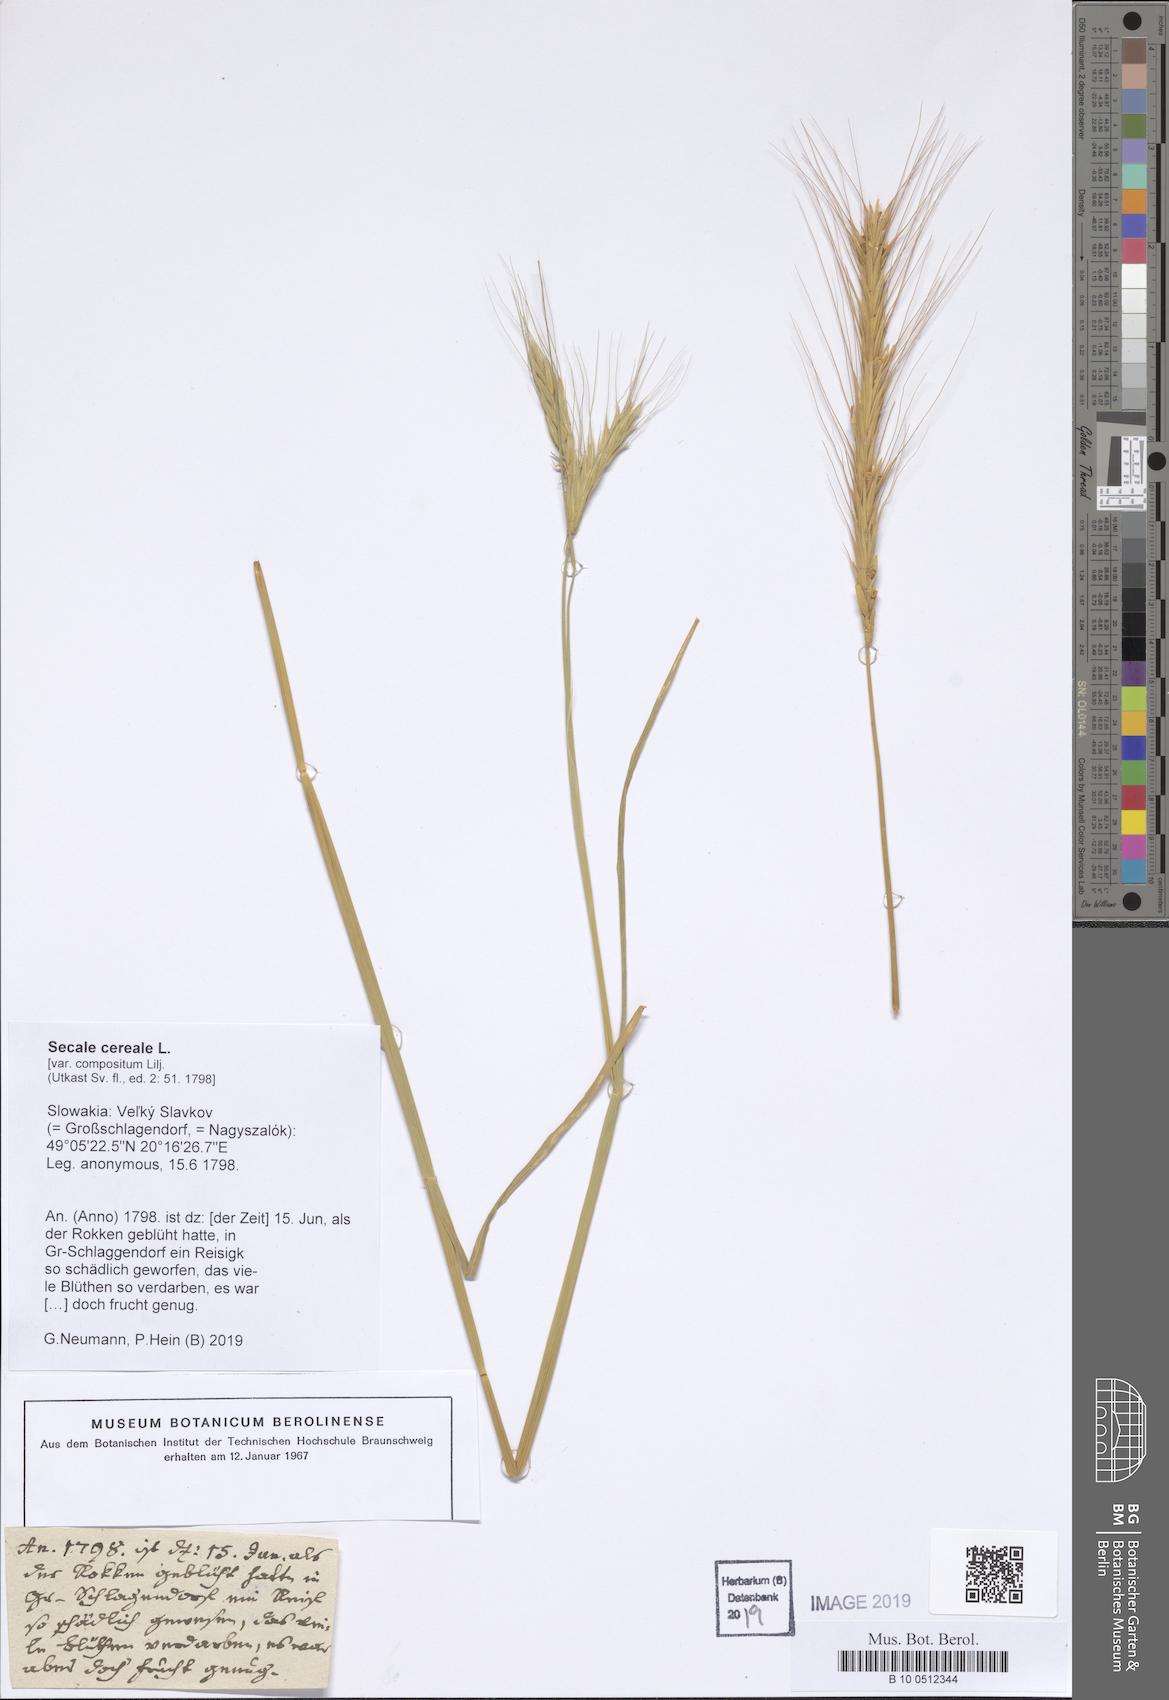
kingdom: Plantae
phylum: Tracheophyta
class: Liliopsida
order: Poales
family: Poaceae
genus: Secale
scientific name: Secale cereale
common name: Rye
